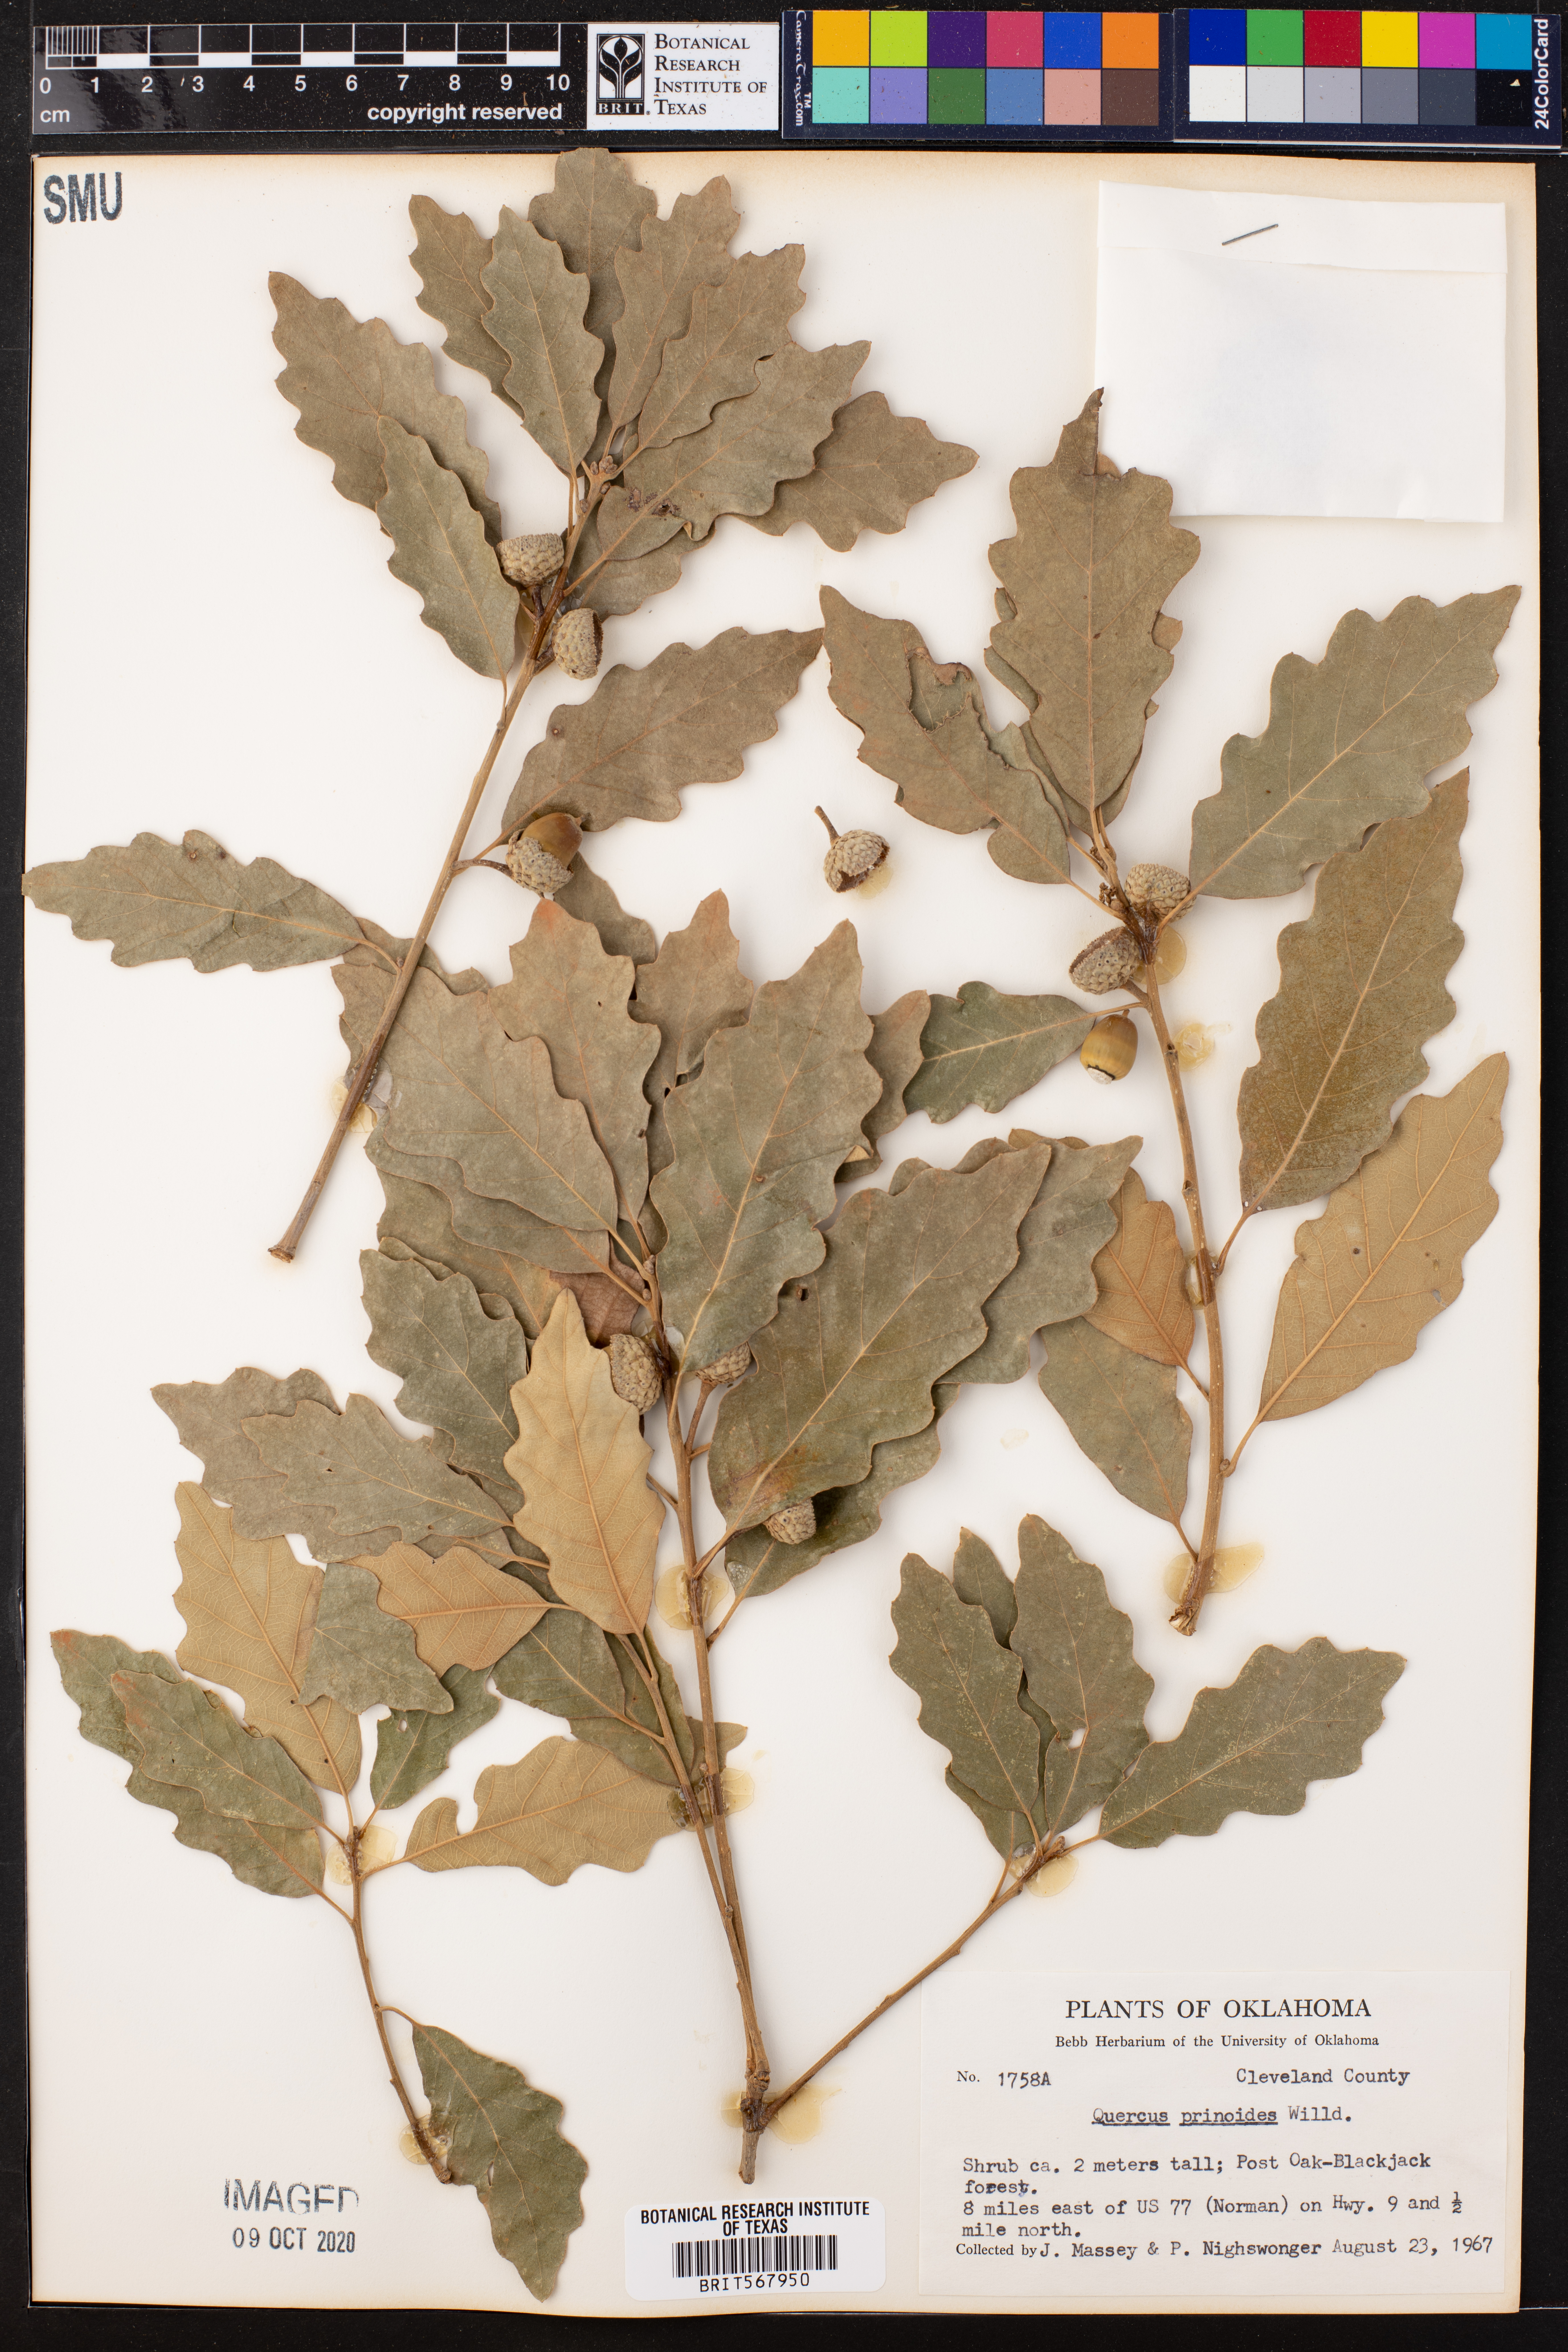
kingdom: Plantae
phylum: Tracheophyta
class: Magnoliopsida
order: Fagales
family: Fagaceae
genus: Quercus
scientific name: Quercus prinoides
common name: Dwarf chinkapin oak
